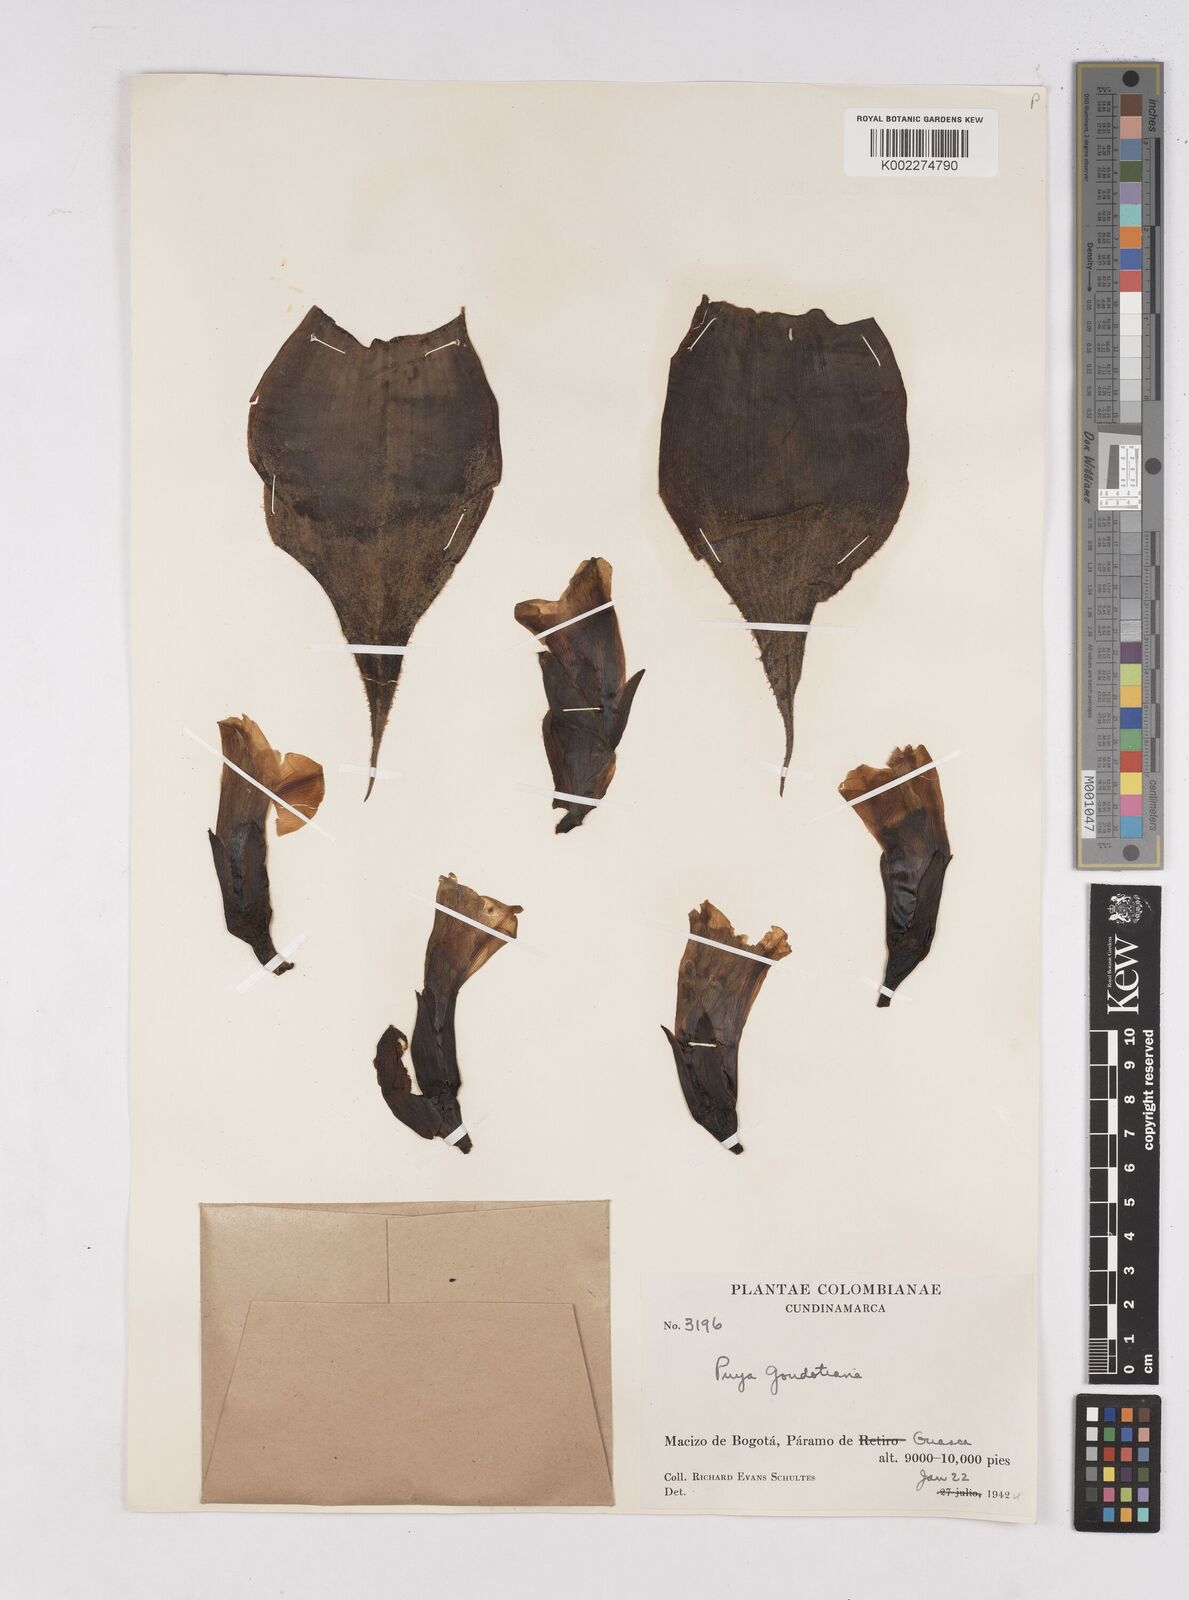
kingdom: Plantae
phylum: Tracheophyta
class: Liliopsida
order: Poales
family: Bromeliaceae
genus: Puya
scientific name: Puya goudotiana
